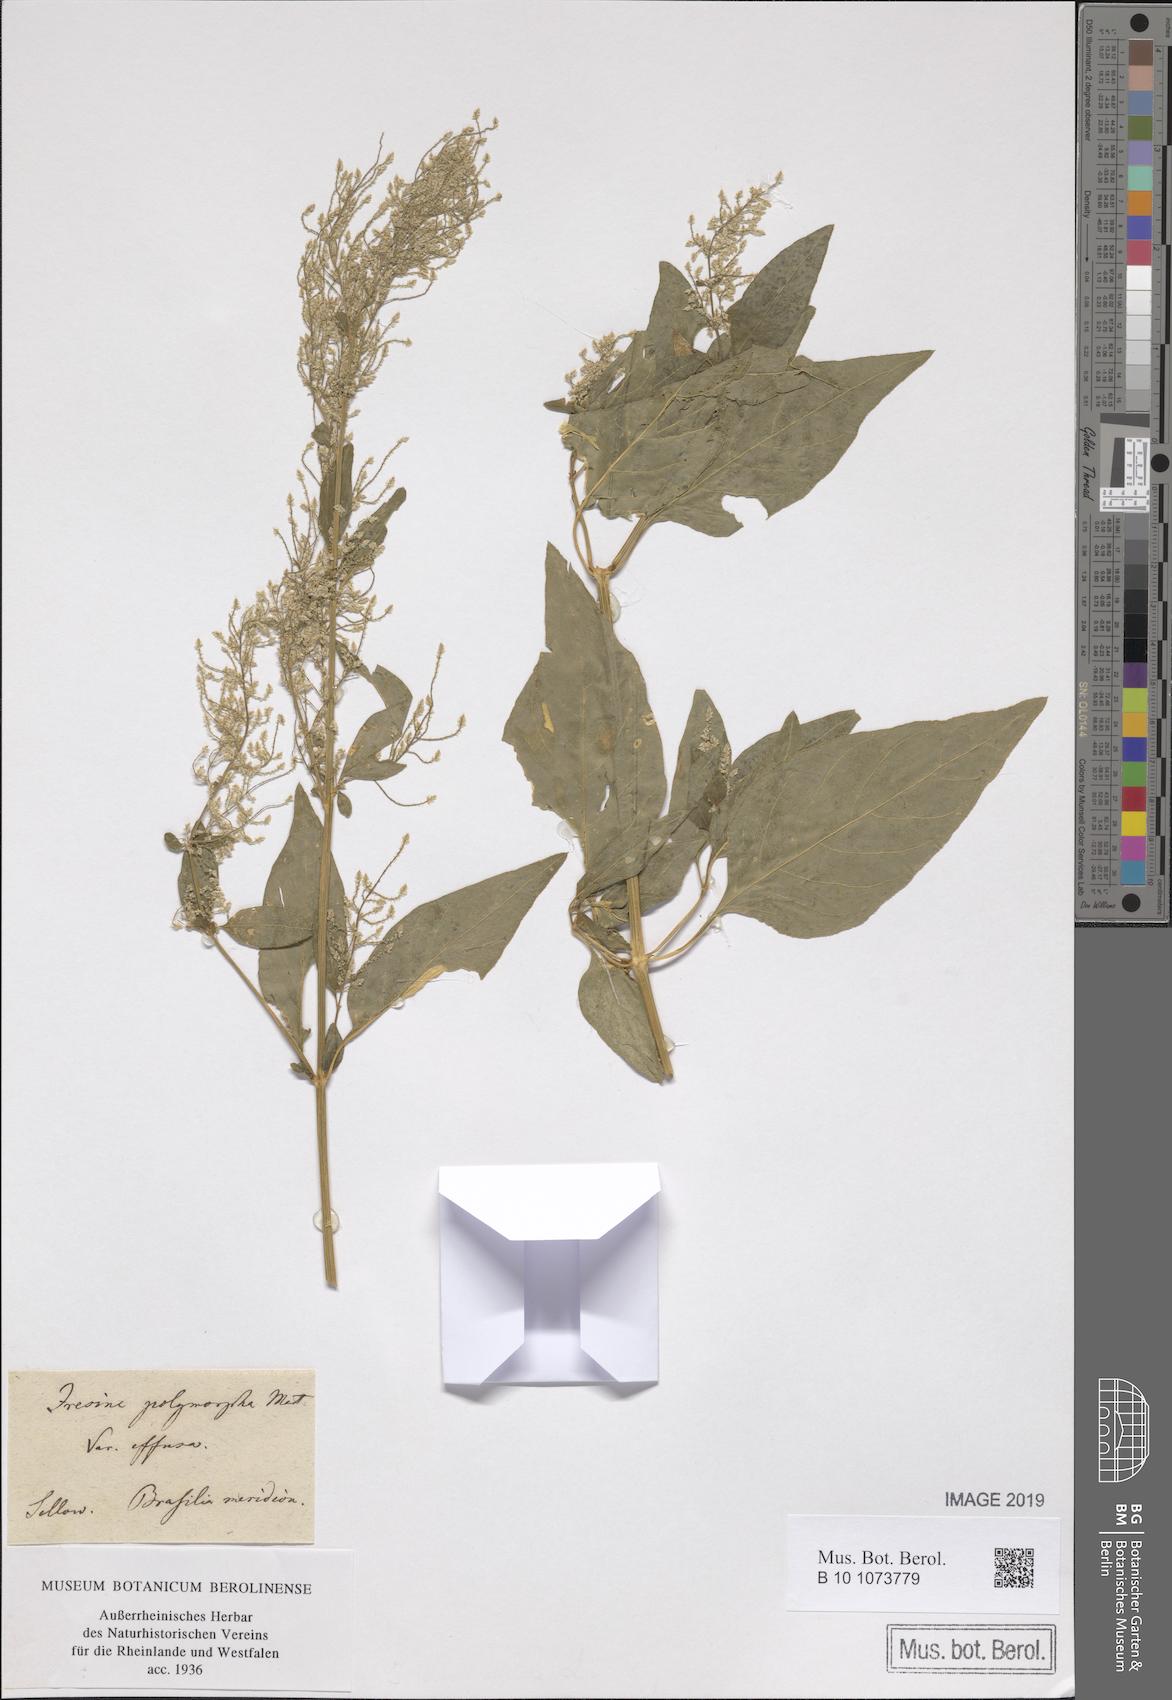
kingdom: Plantae
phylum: Tracheophyta
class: Magnoliopsida
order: Caryophyllales
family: Amaranthaceae
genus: Iresine
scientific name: Iresine diffusa
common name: Juba's-bush
